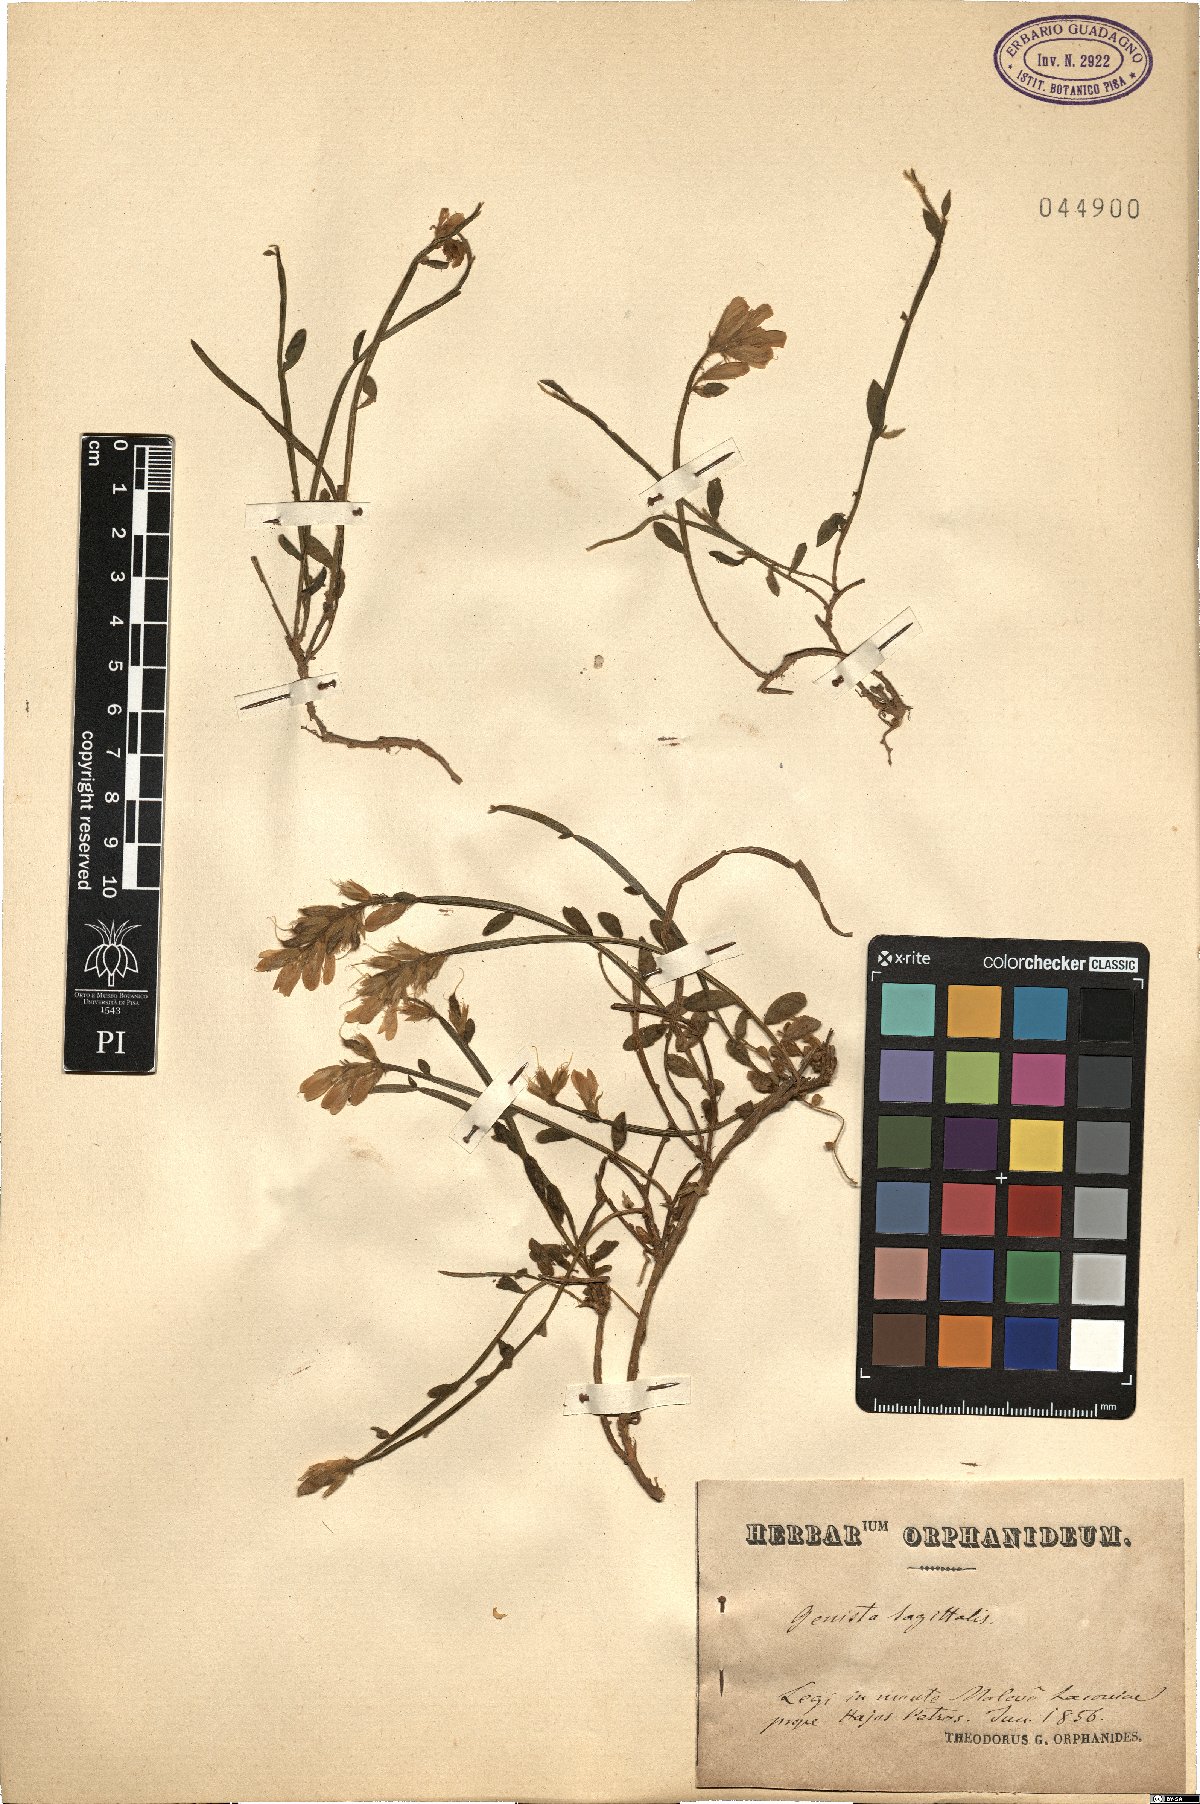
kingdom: Plantae
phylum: Tracheophyta
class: Magnoliopsida
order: Fabales
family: Fabaceae
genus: Genista
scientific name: Genista sagittalis
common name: Winged greenweed
